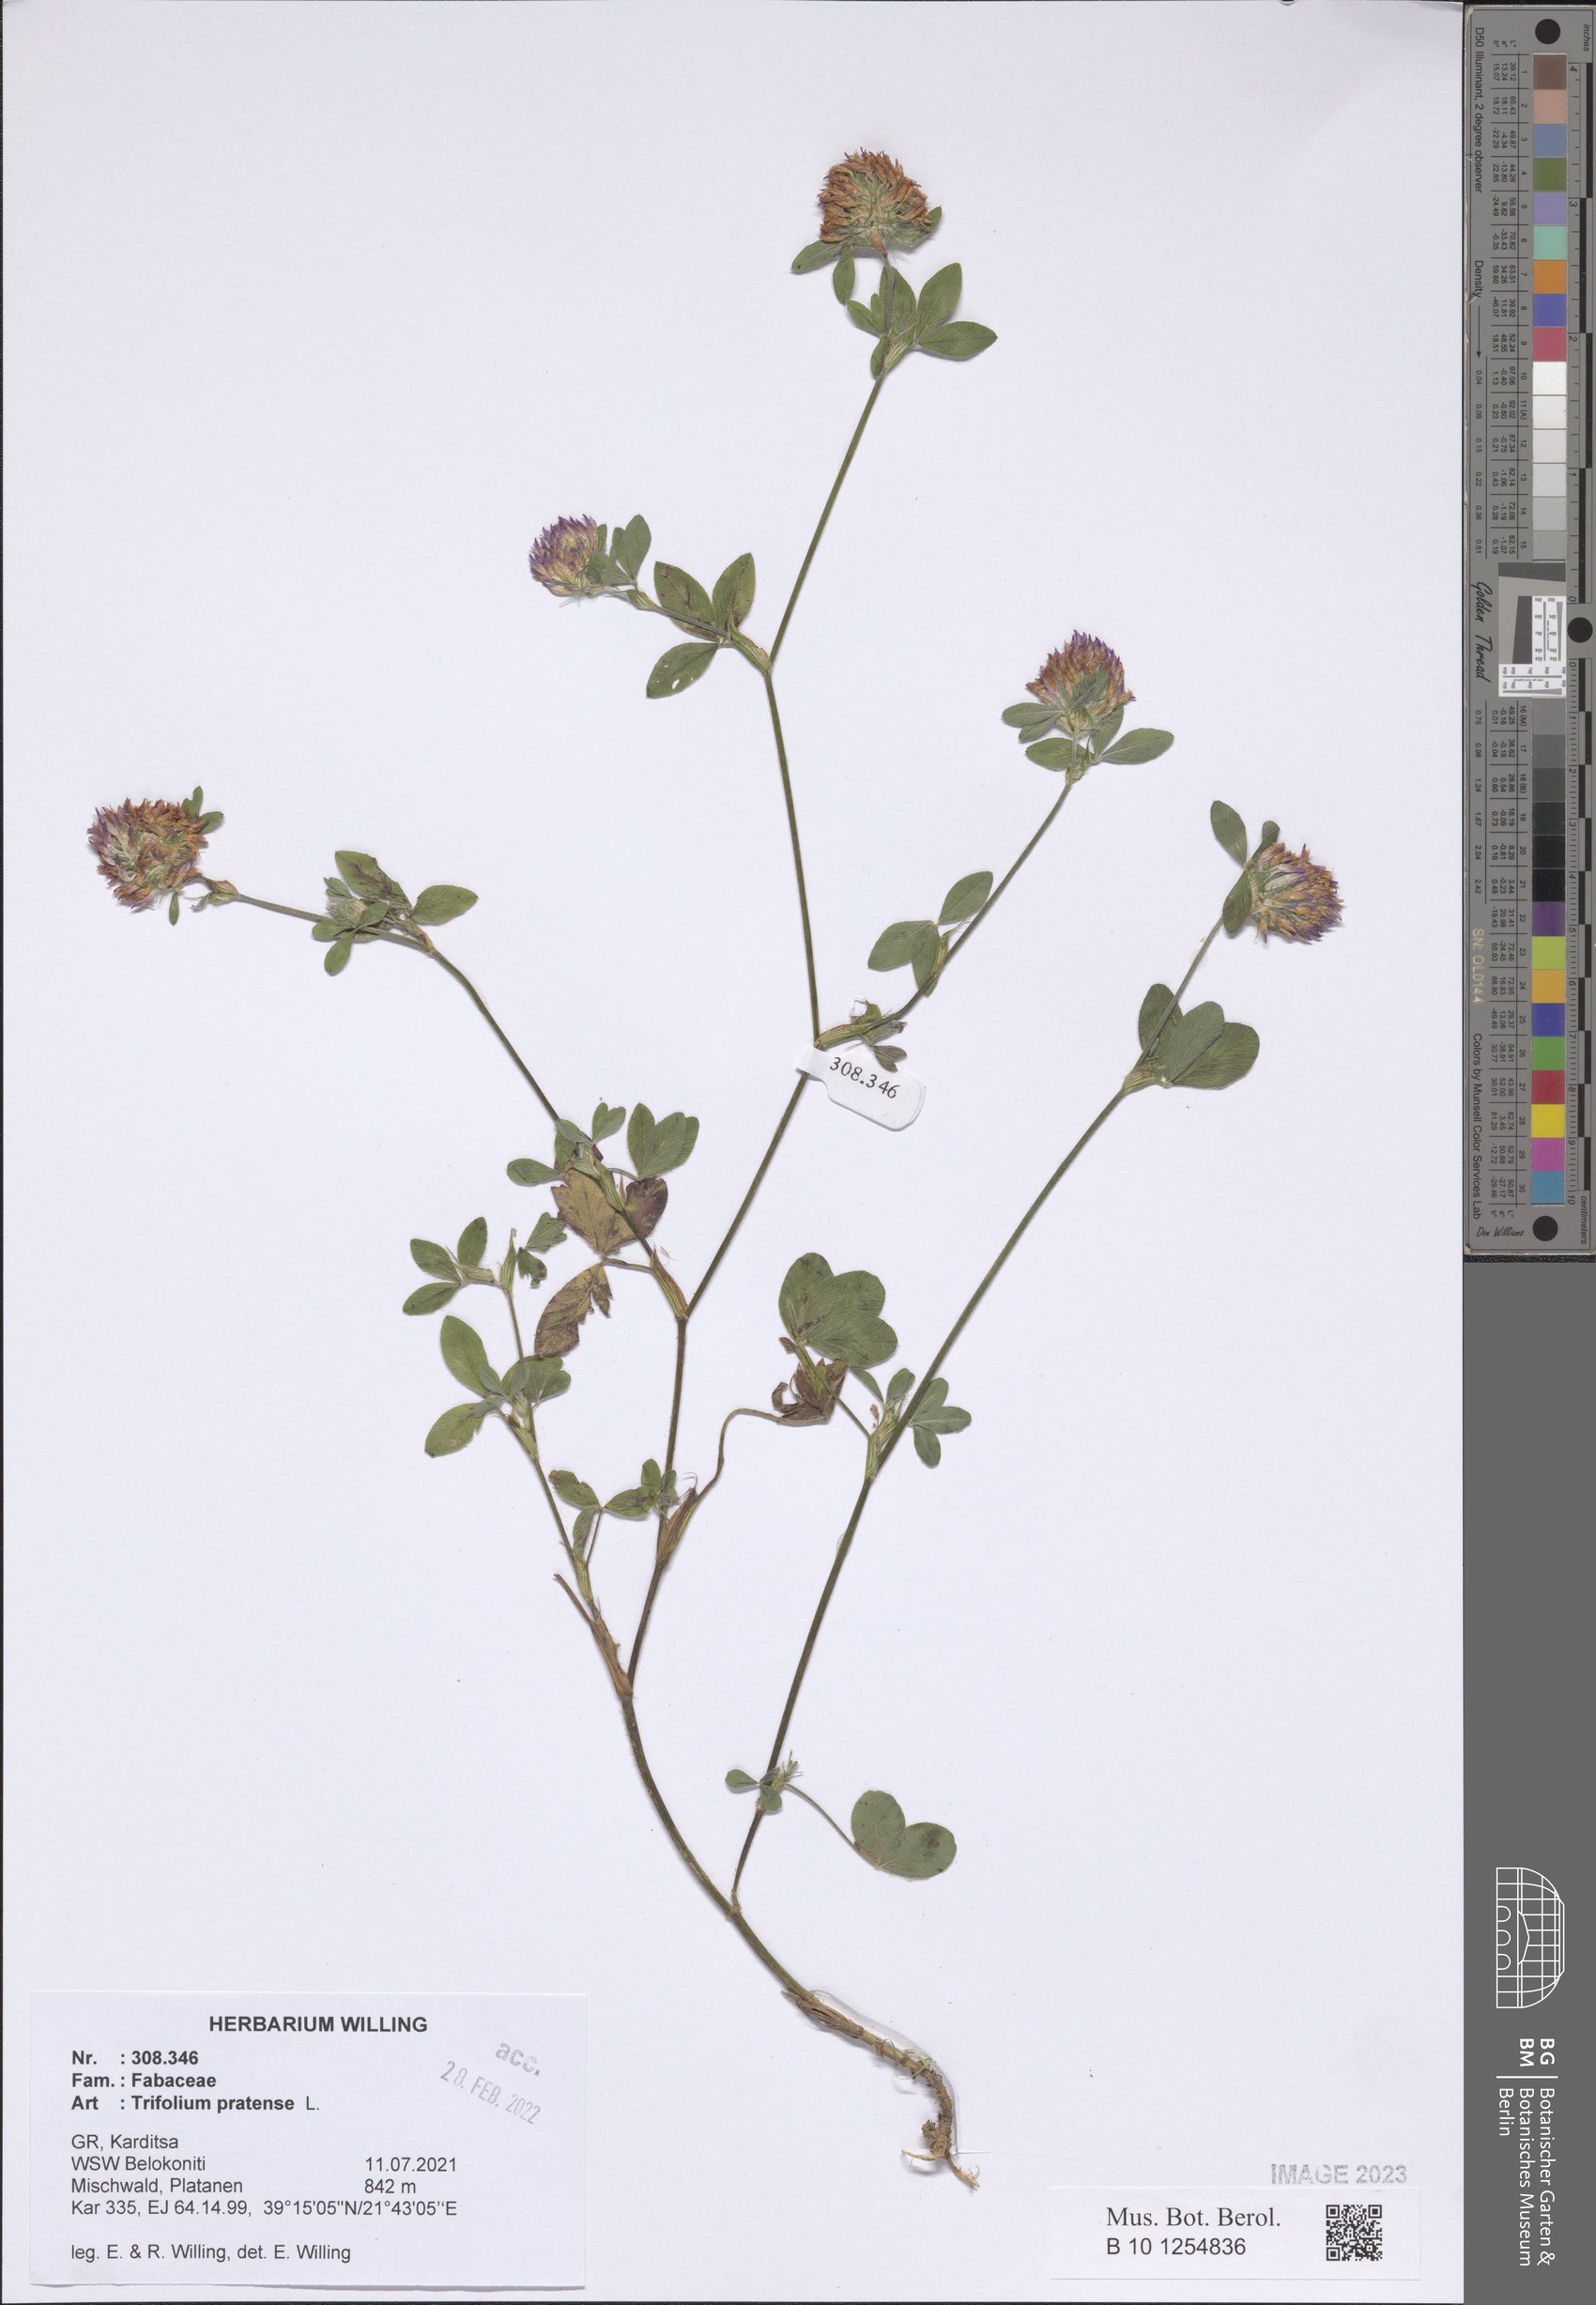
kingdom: Plantae
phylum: Tracheophyta
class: Magnoliopsida
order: Fabales
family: Fabaceae
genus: Trifolium
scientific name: Trifolium pratense
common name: Red clover
